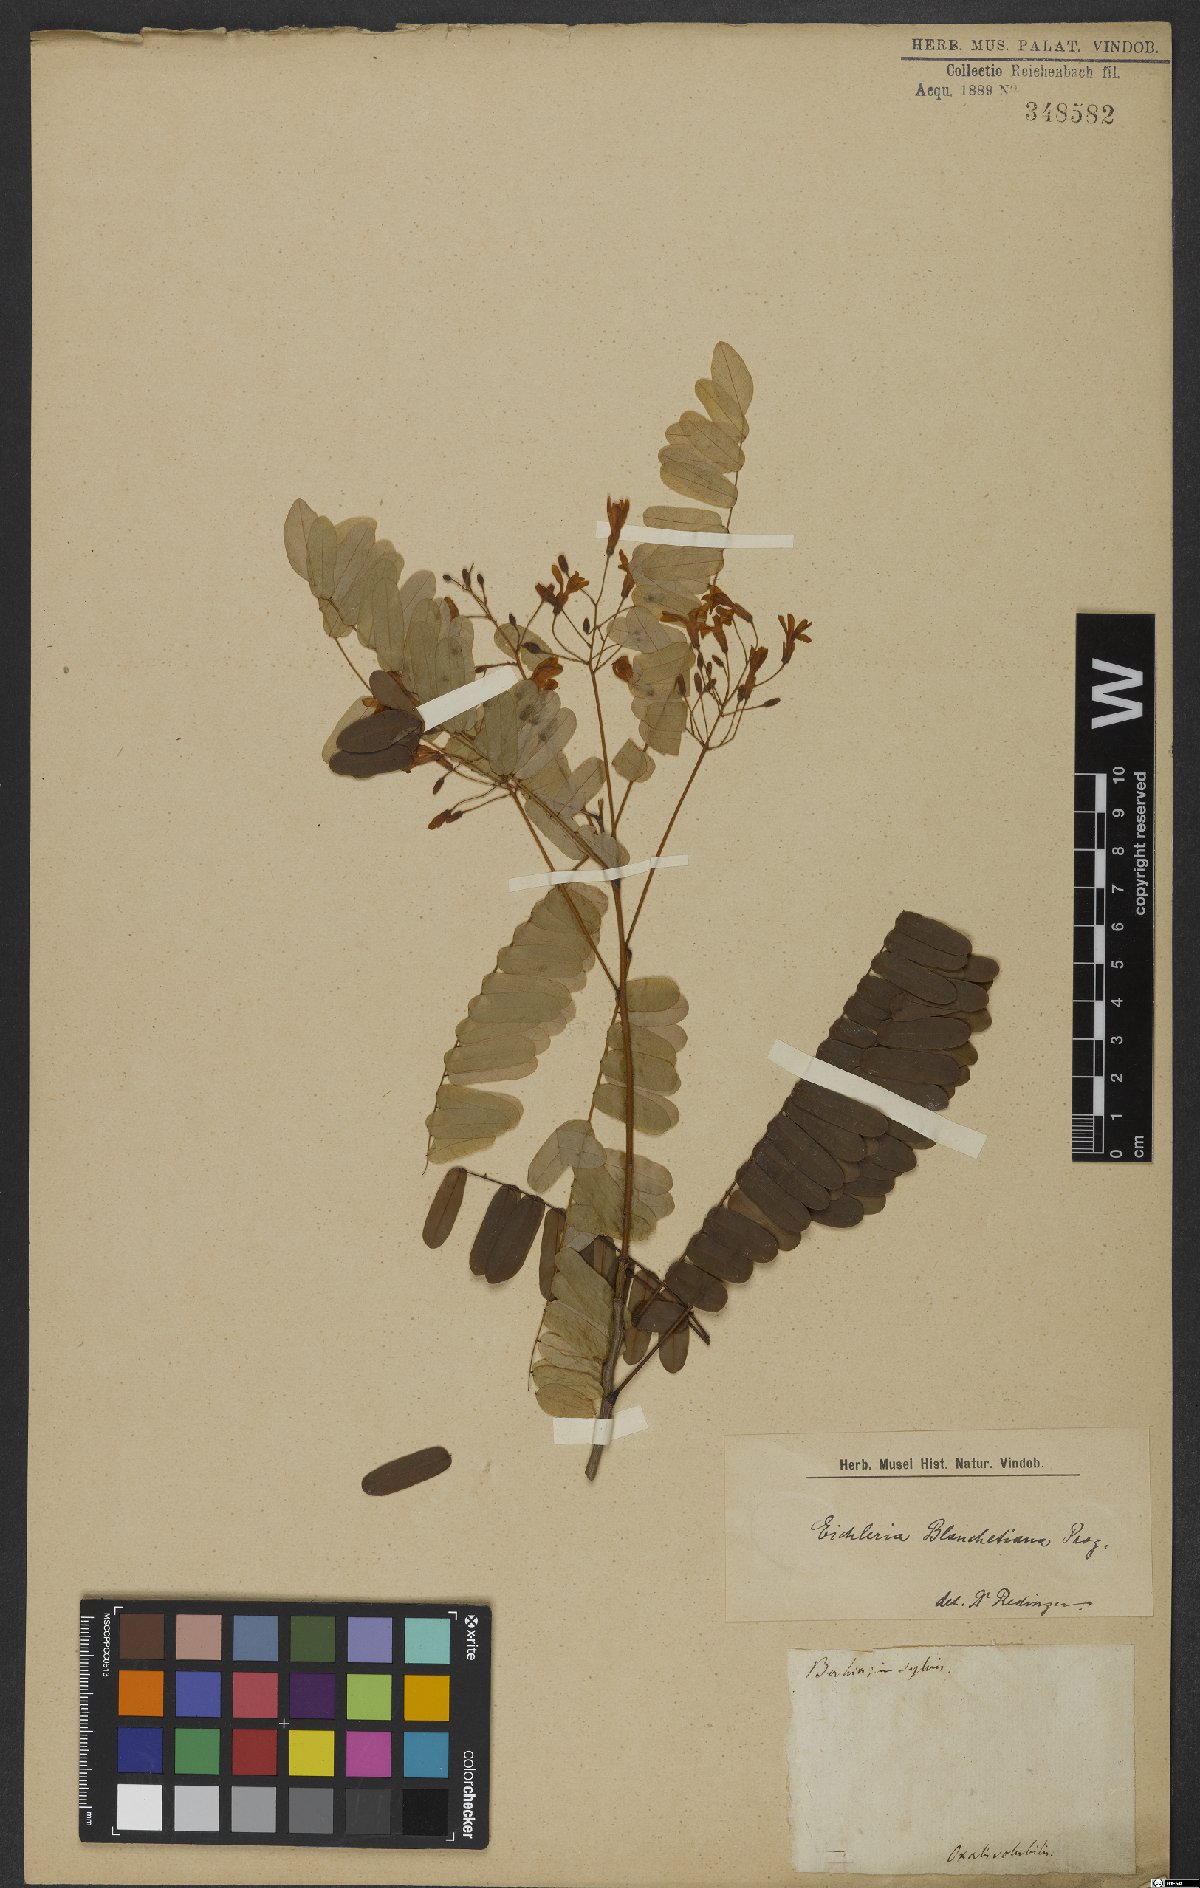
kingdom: Plantae
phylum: Tracheophyta
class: Magnoliopsida
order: Oxalidales
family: Connaraceae
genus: Rourea
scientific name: Rourea blanchetiana
